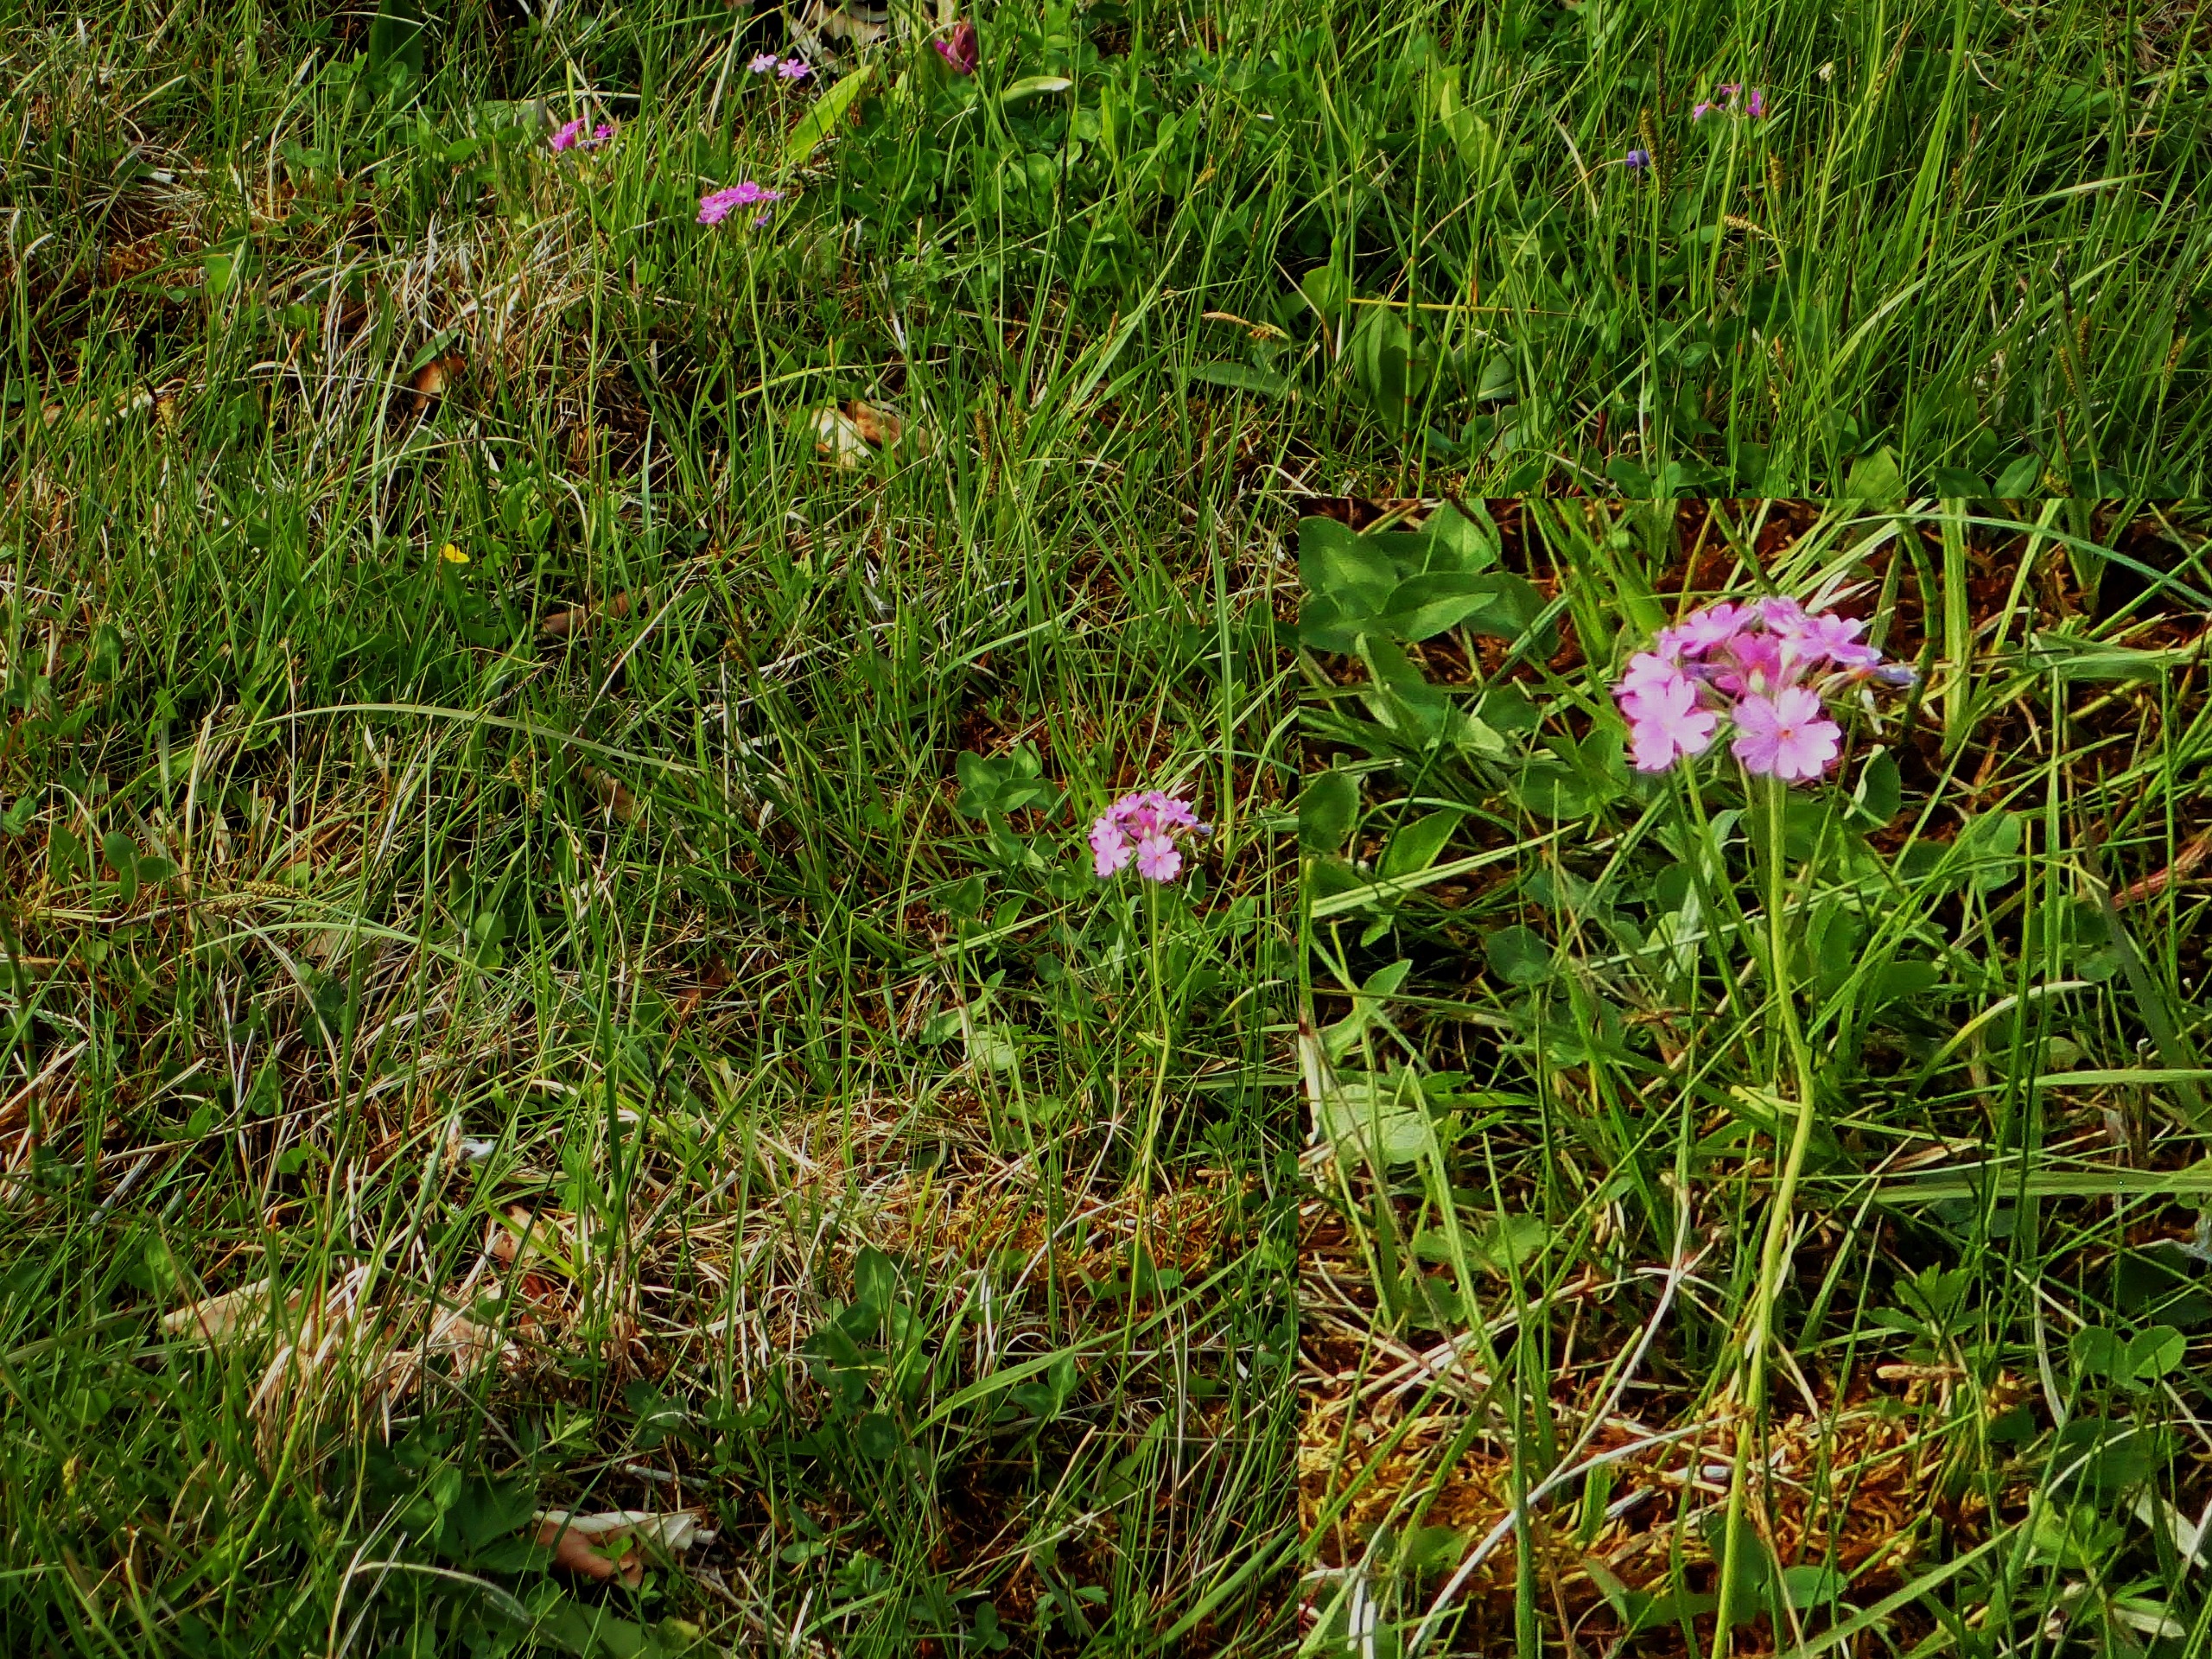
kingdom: Plantae
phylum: Tracheophyta
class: Magnoliopsida
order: Ericales
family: Primulaceae
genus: Primula
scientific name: Primula farinosa
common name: Melet kodriver
